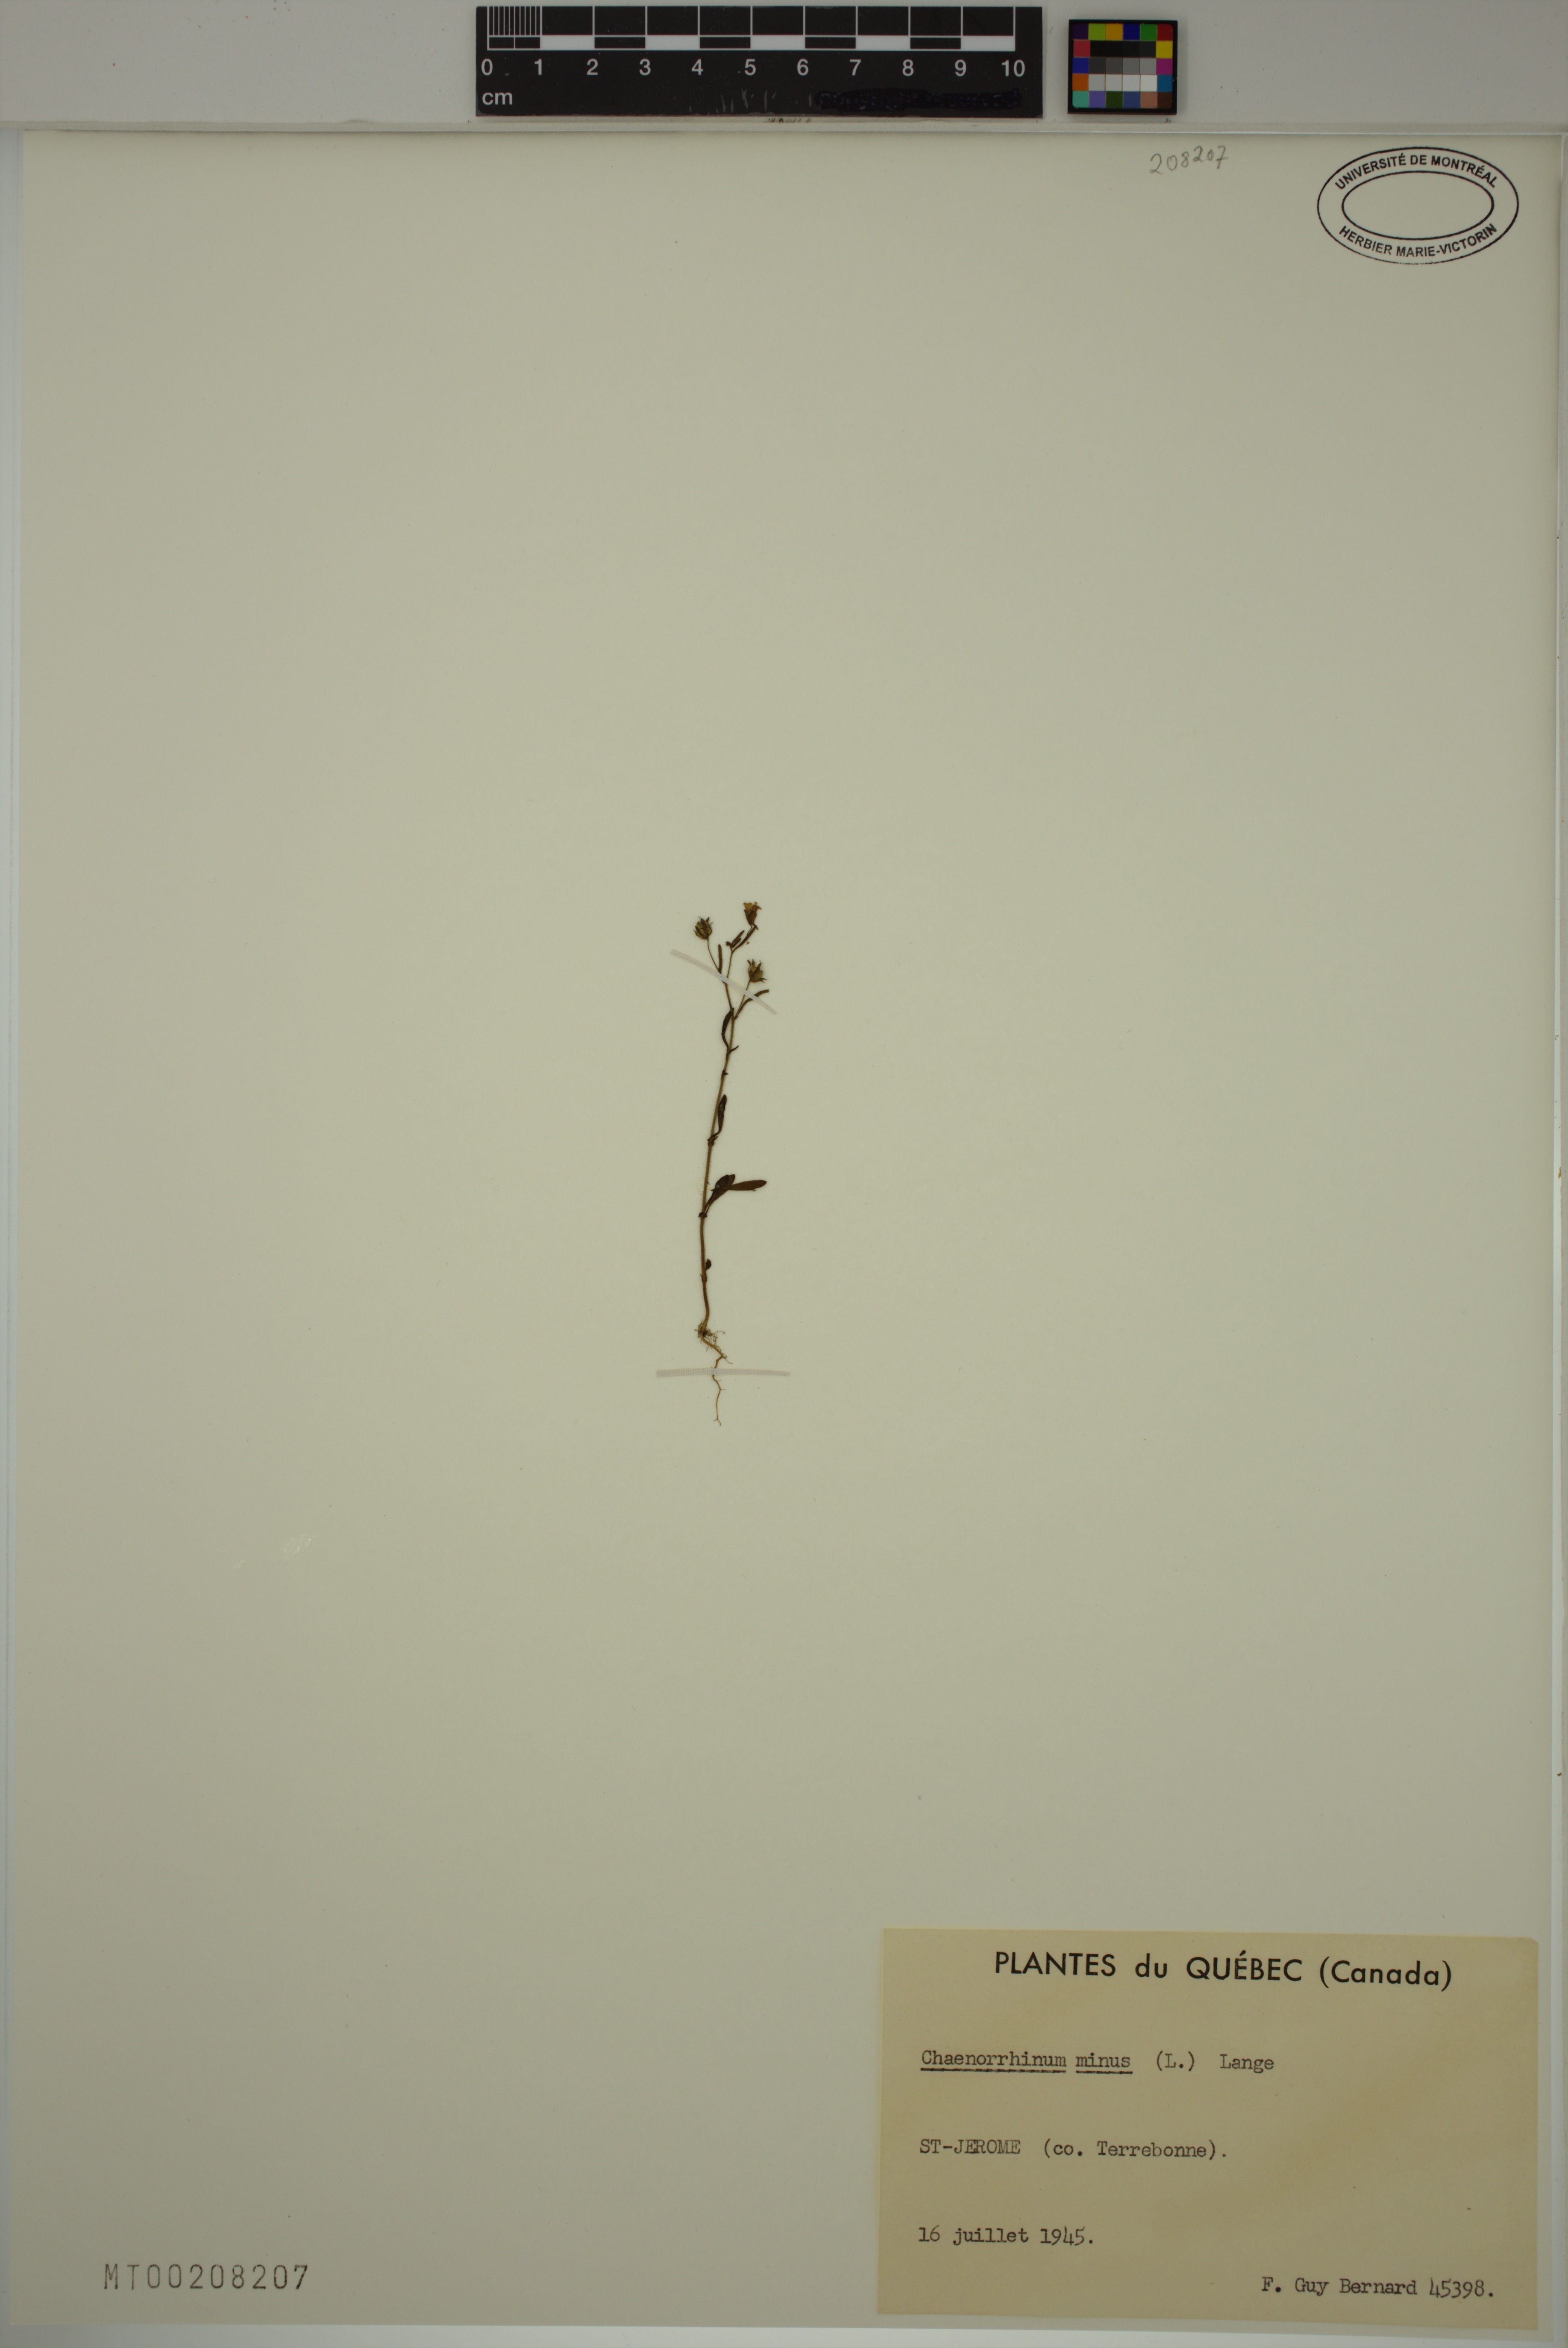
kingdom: Plantae
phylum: Tracheophyta
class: Magnoliopsida
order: Lamiales
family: Plantaginaceae
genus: Chaenorhinum
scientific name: Chaenorhinum minus
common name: Dwarf snapdragon
